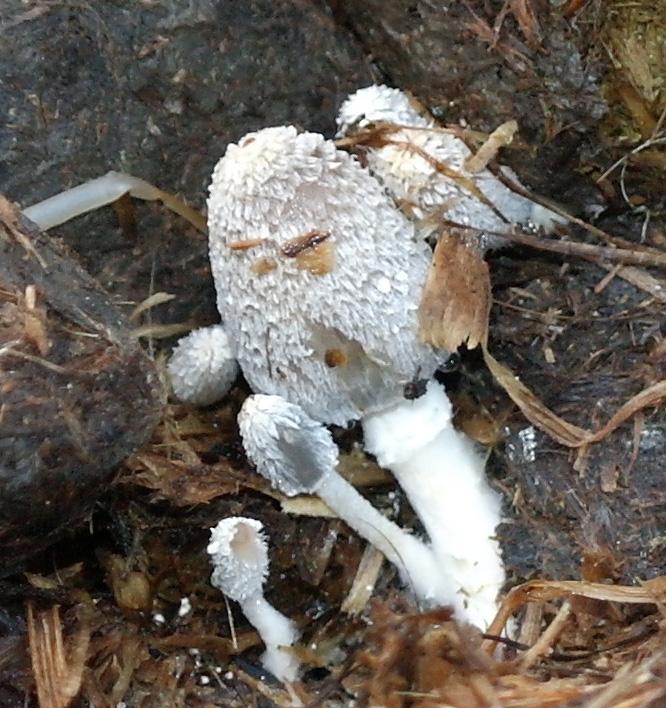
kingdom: Fungi
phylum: Basidiomycota
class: Agaricomycetes
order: Agaricales
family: Psathyrellaceae
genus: Coprinopsis
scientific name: Coprinopsis cinerea
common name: mødding-blækhat
